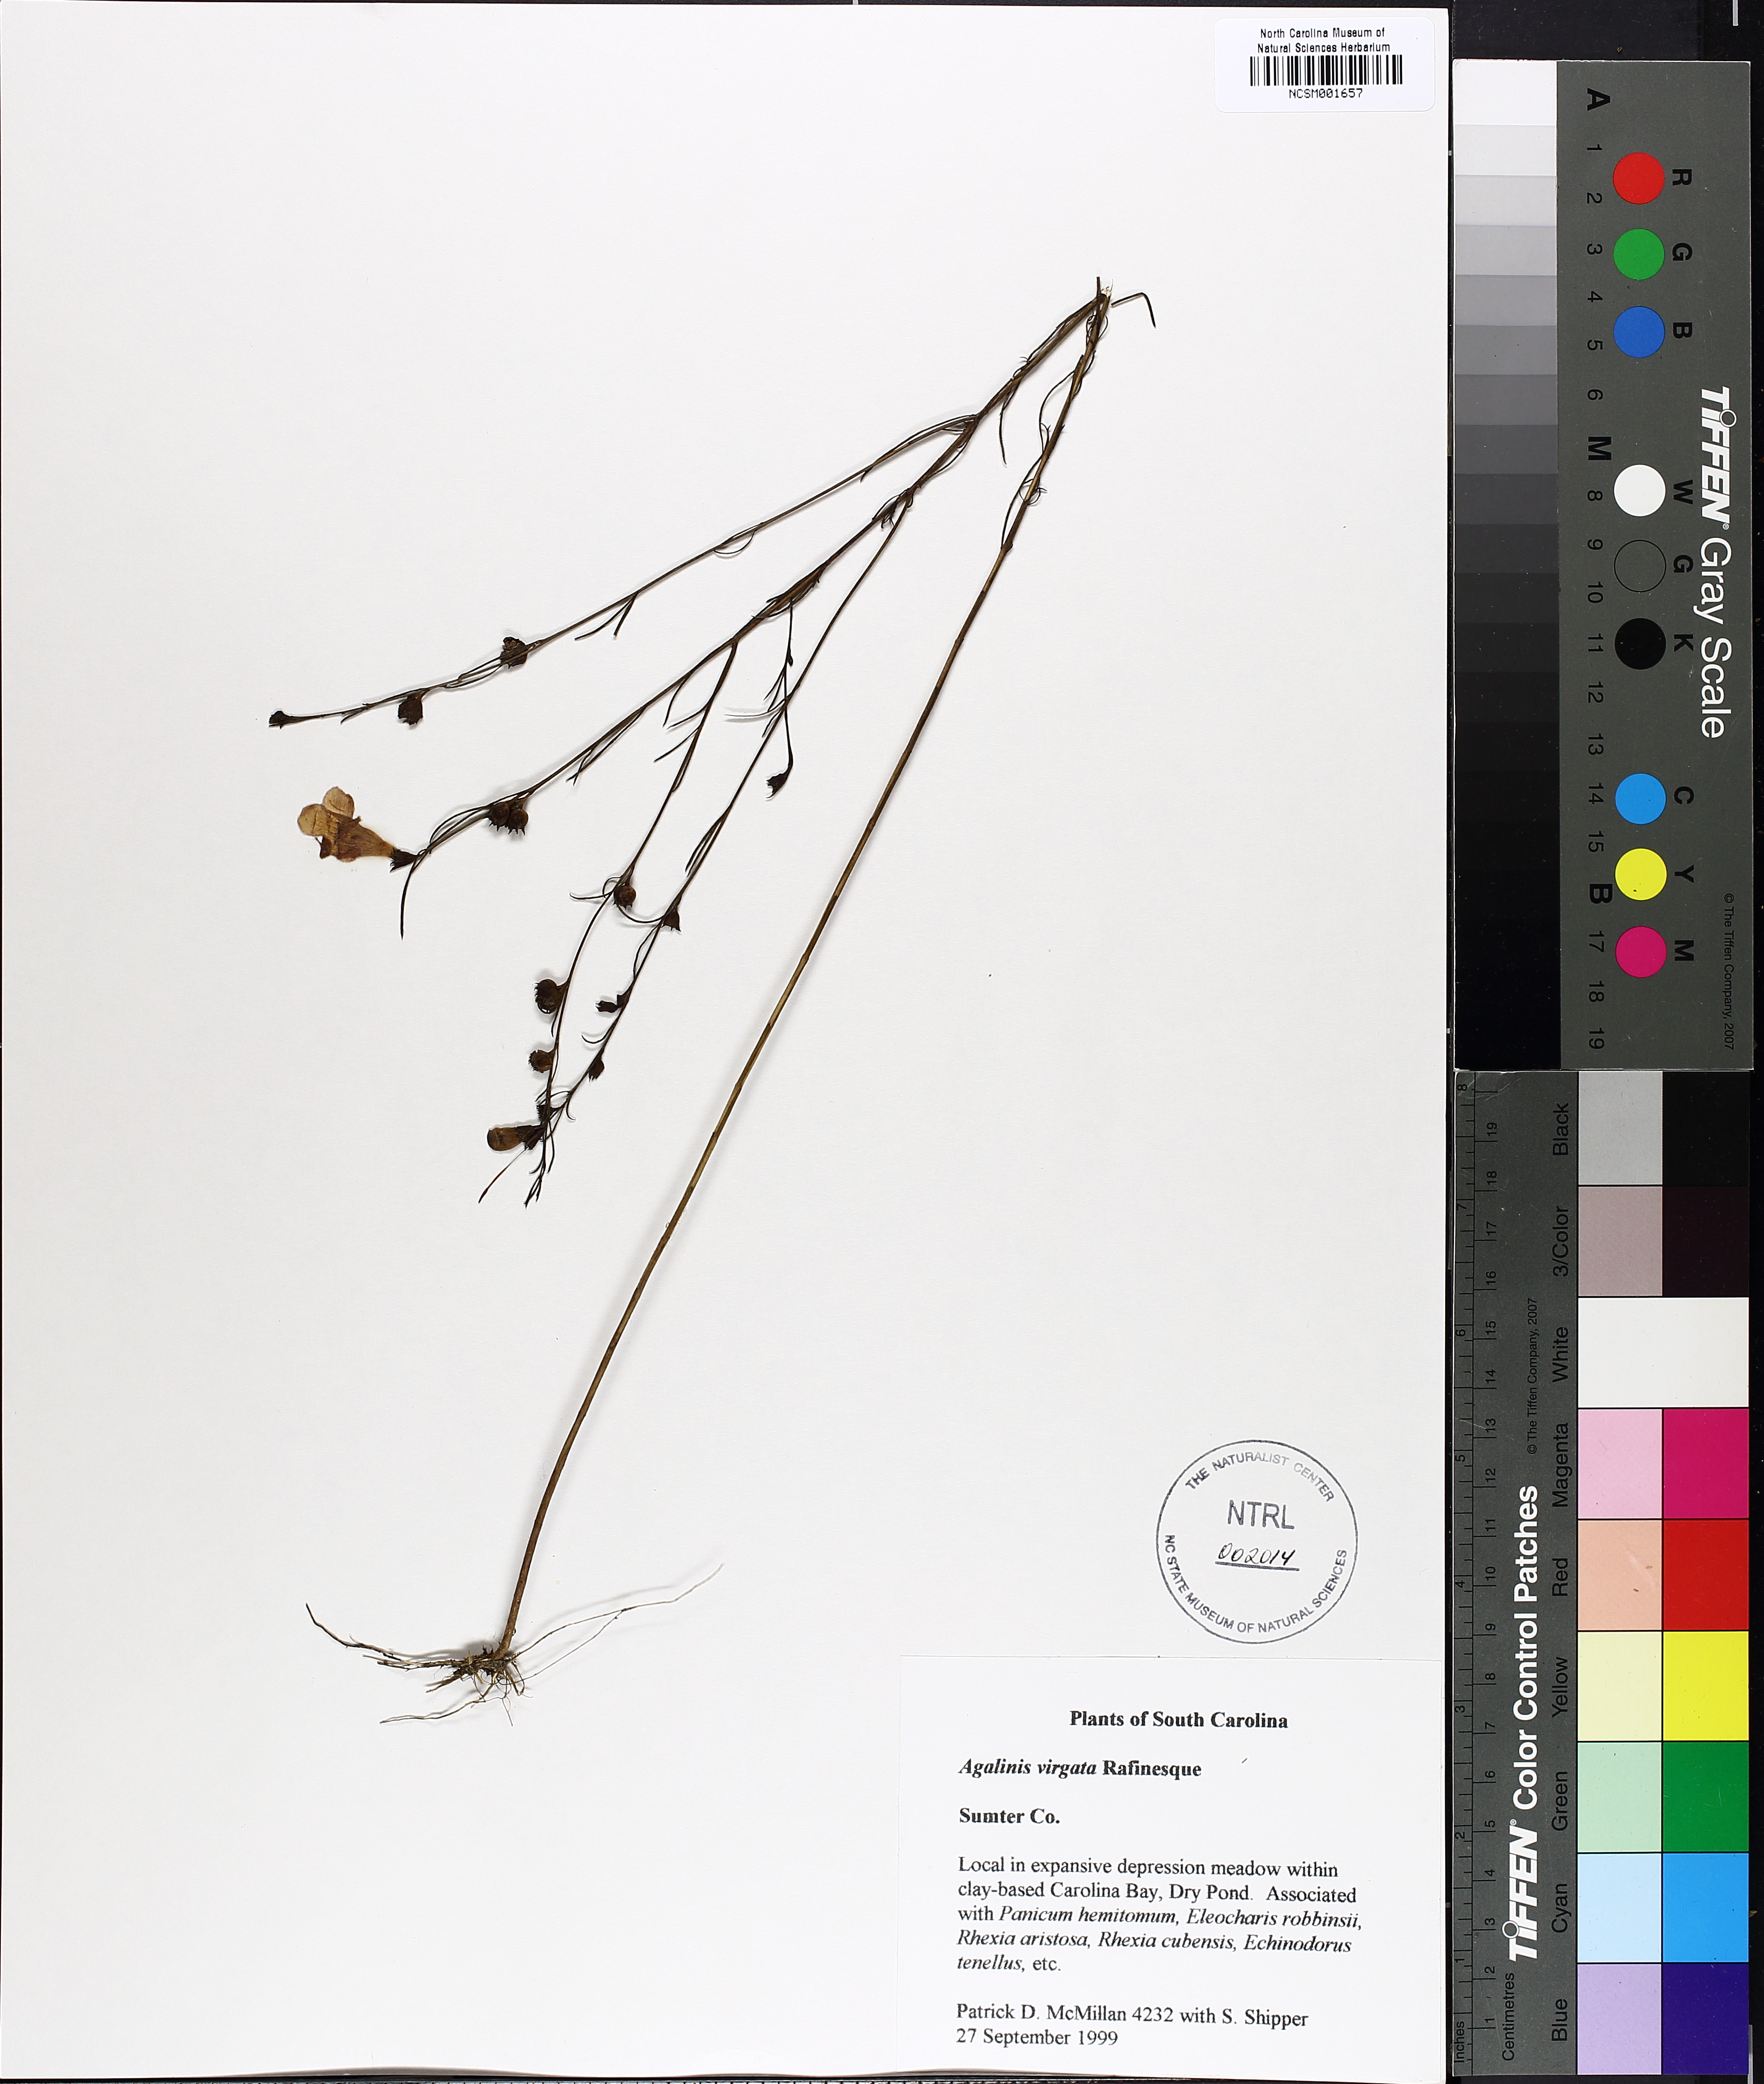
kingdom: Plantae
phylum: Tracheophyta
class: Magnoliopsida
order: Lamiales
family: Orobanchaceae
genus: Agalinis
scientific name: Agalinis fasciculata
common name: Beach false foxglove
